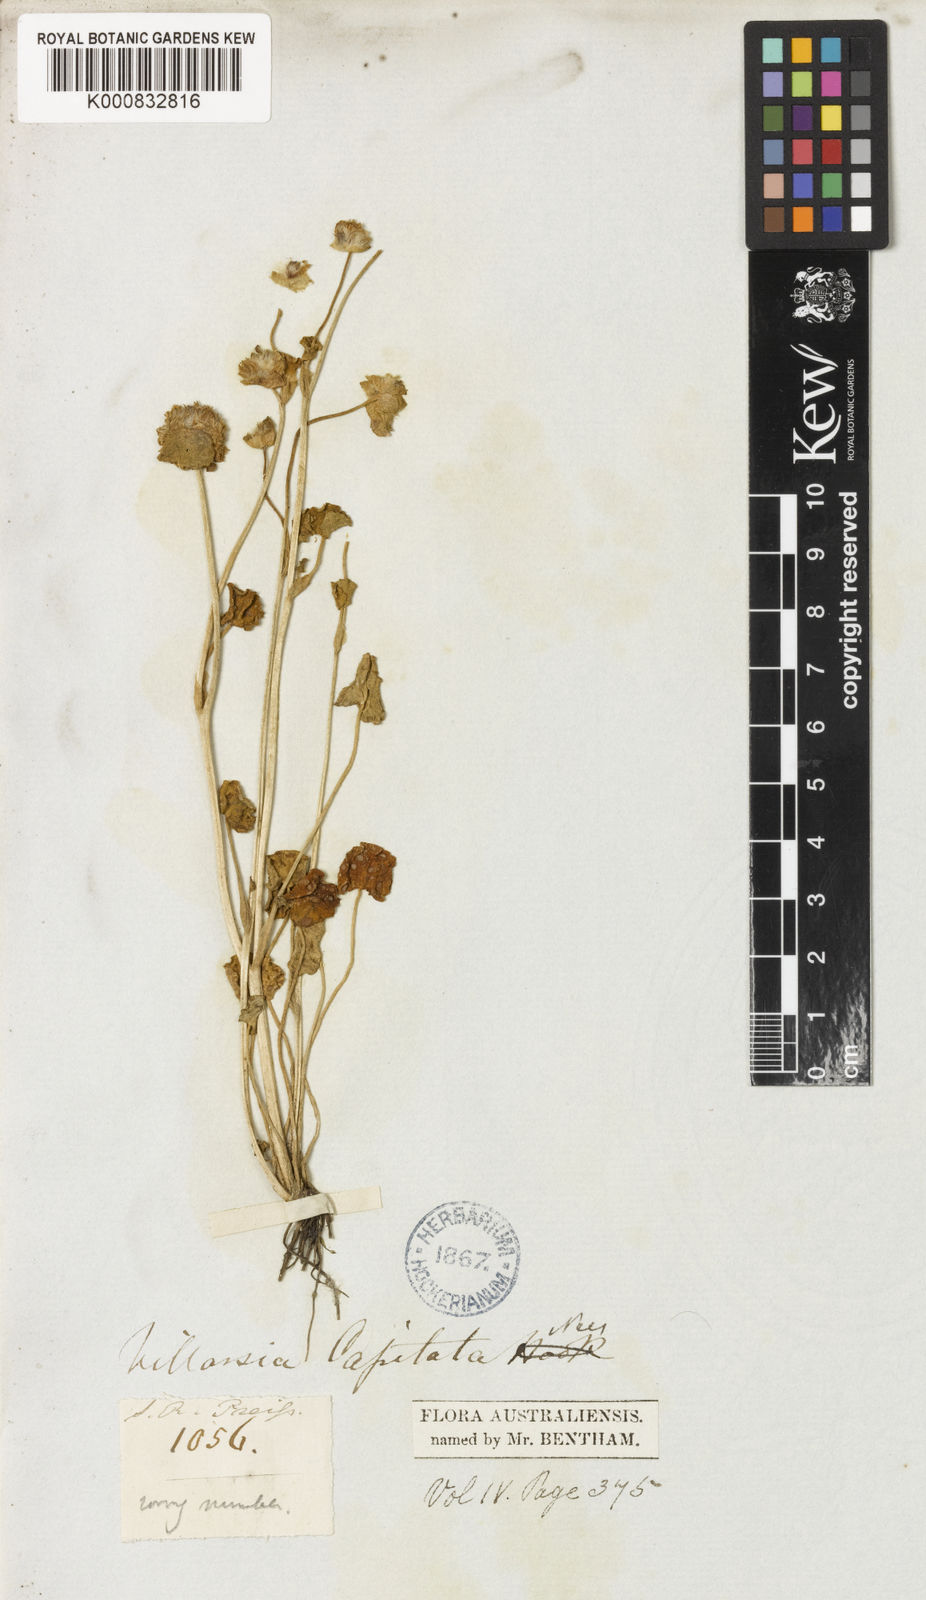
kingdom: Plantae
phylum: Tracheophyta
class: Magnoliopsida
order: Asterales
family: Menyanthaceae
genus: Liparophyllum
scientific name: Liparophyllum capitatum
